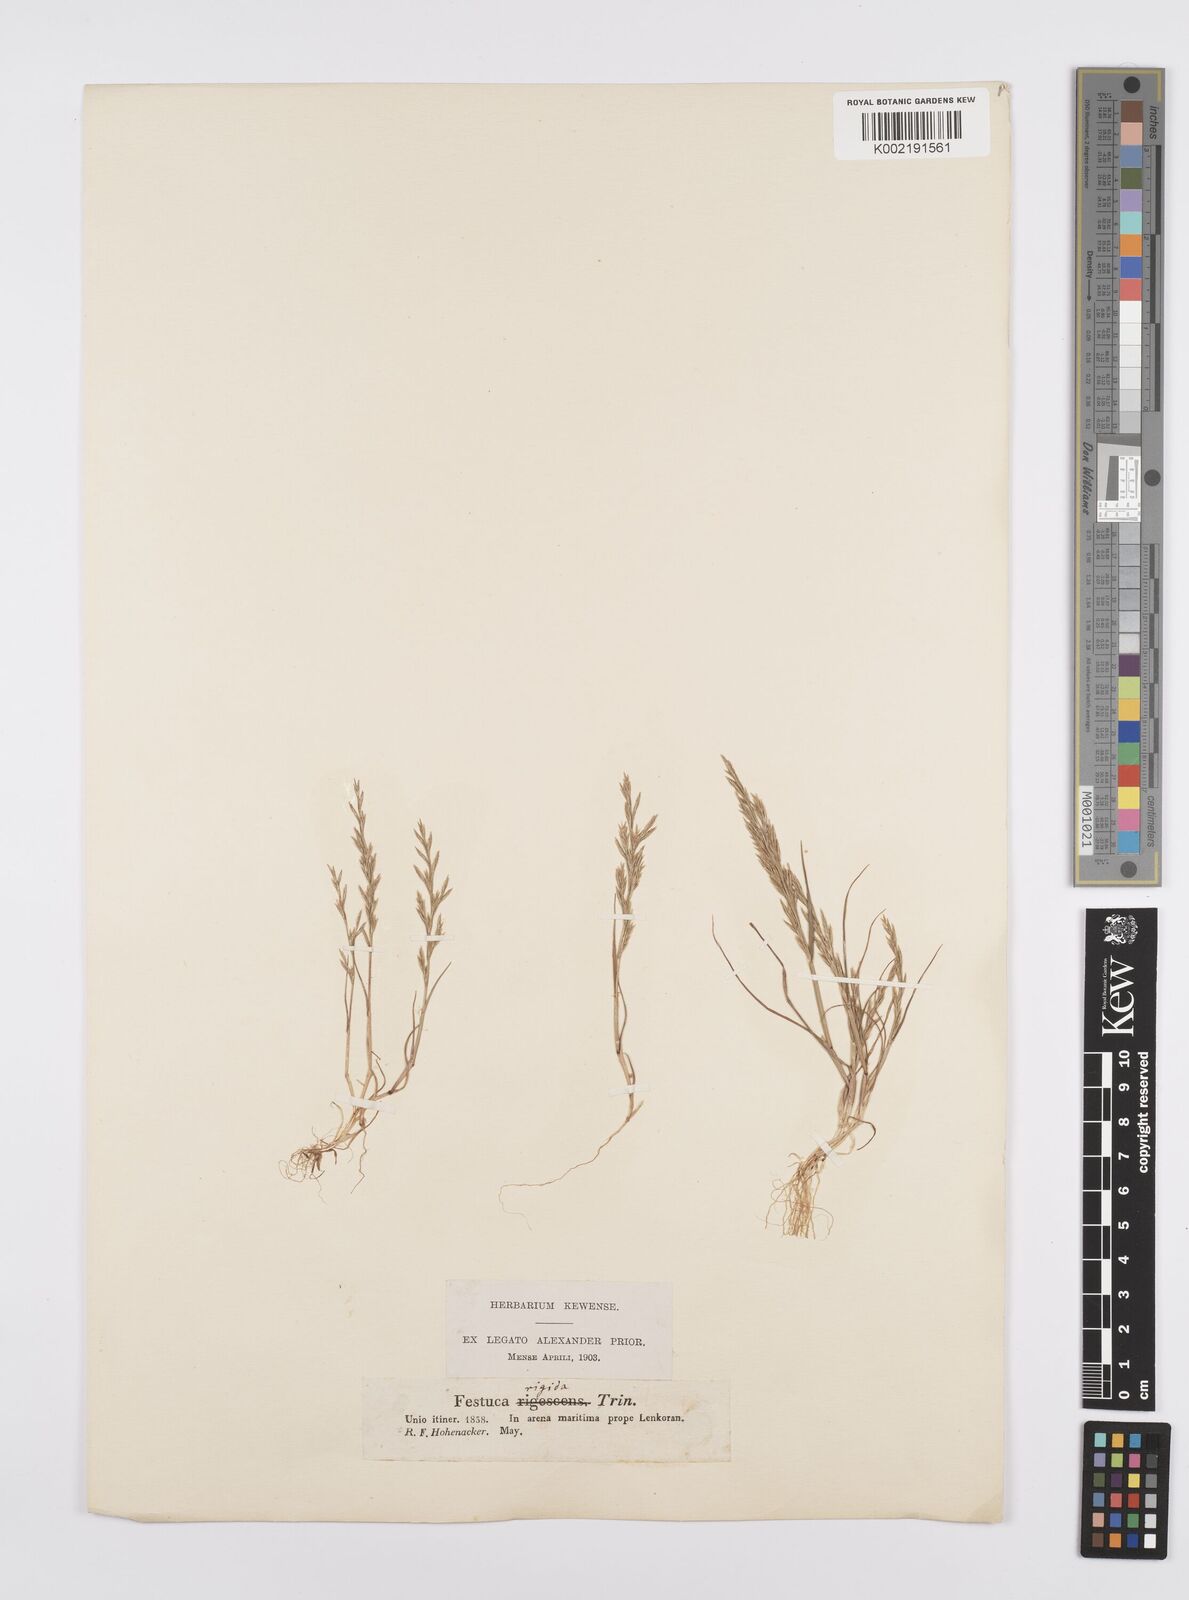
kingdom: Plantae
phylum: Tracheophyta
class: Liliopsida
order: Poales
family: Poaceae
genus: Catapodium
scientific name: Catapodium rigidum
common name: Fern-grass
